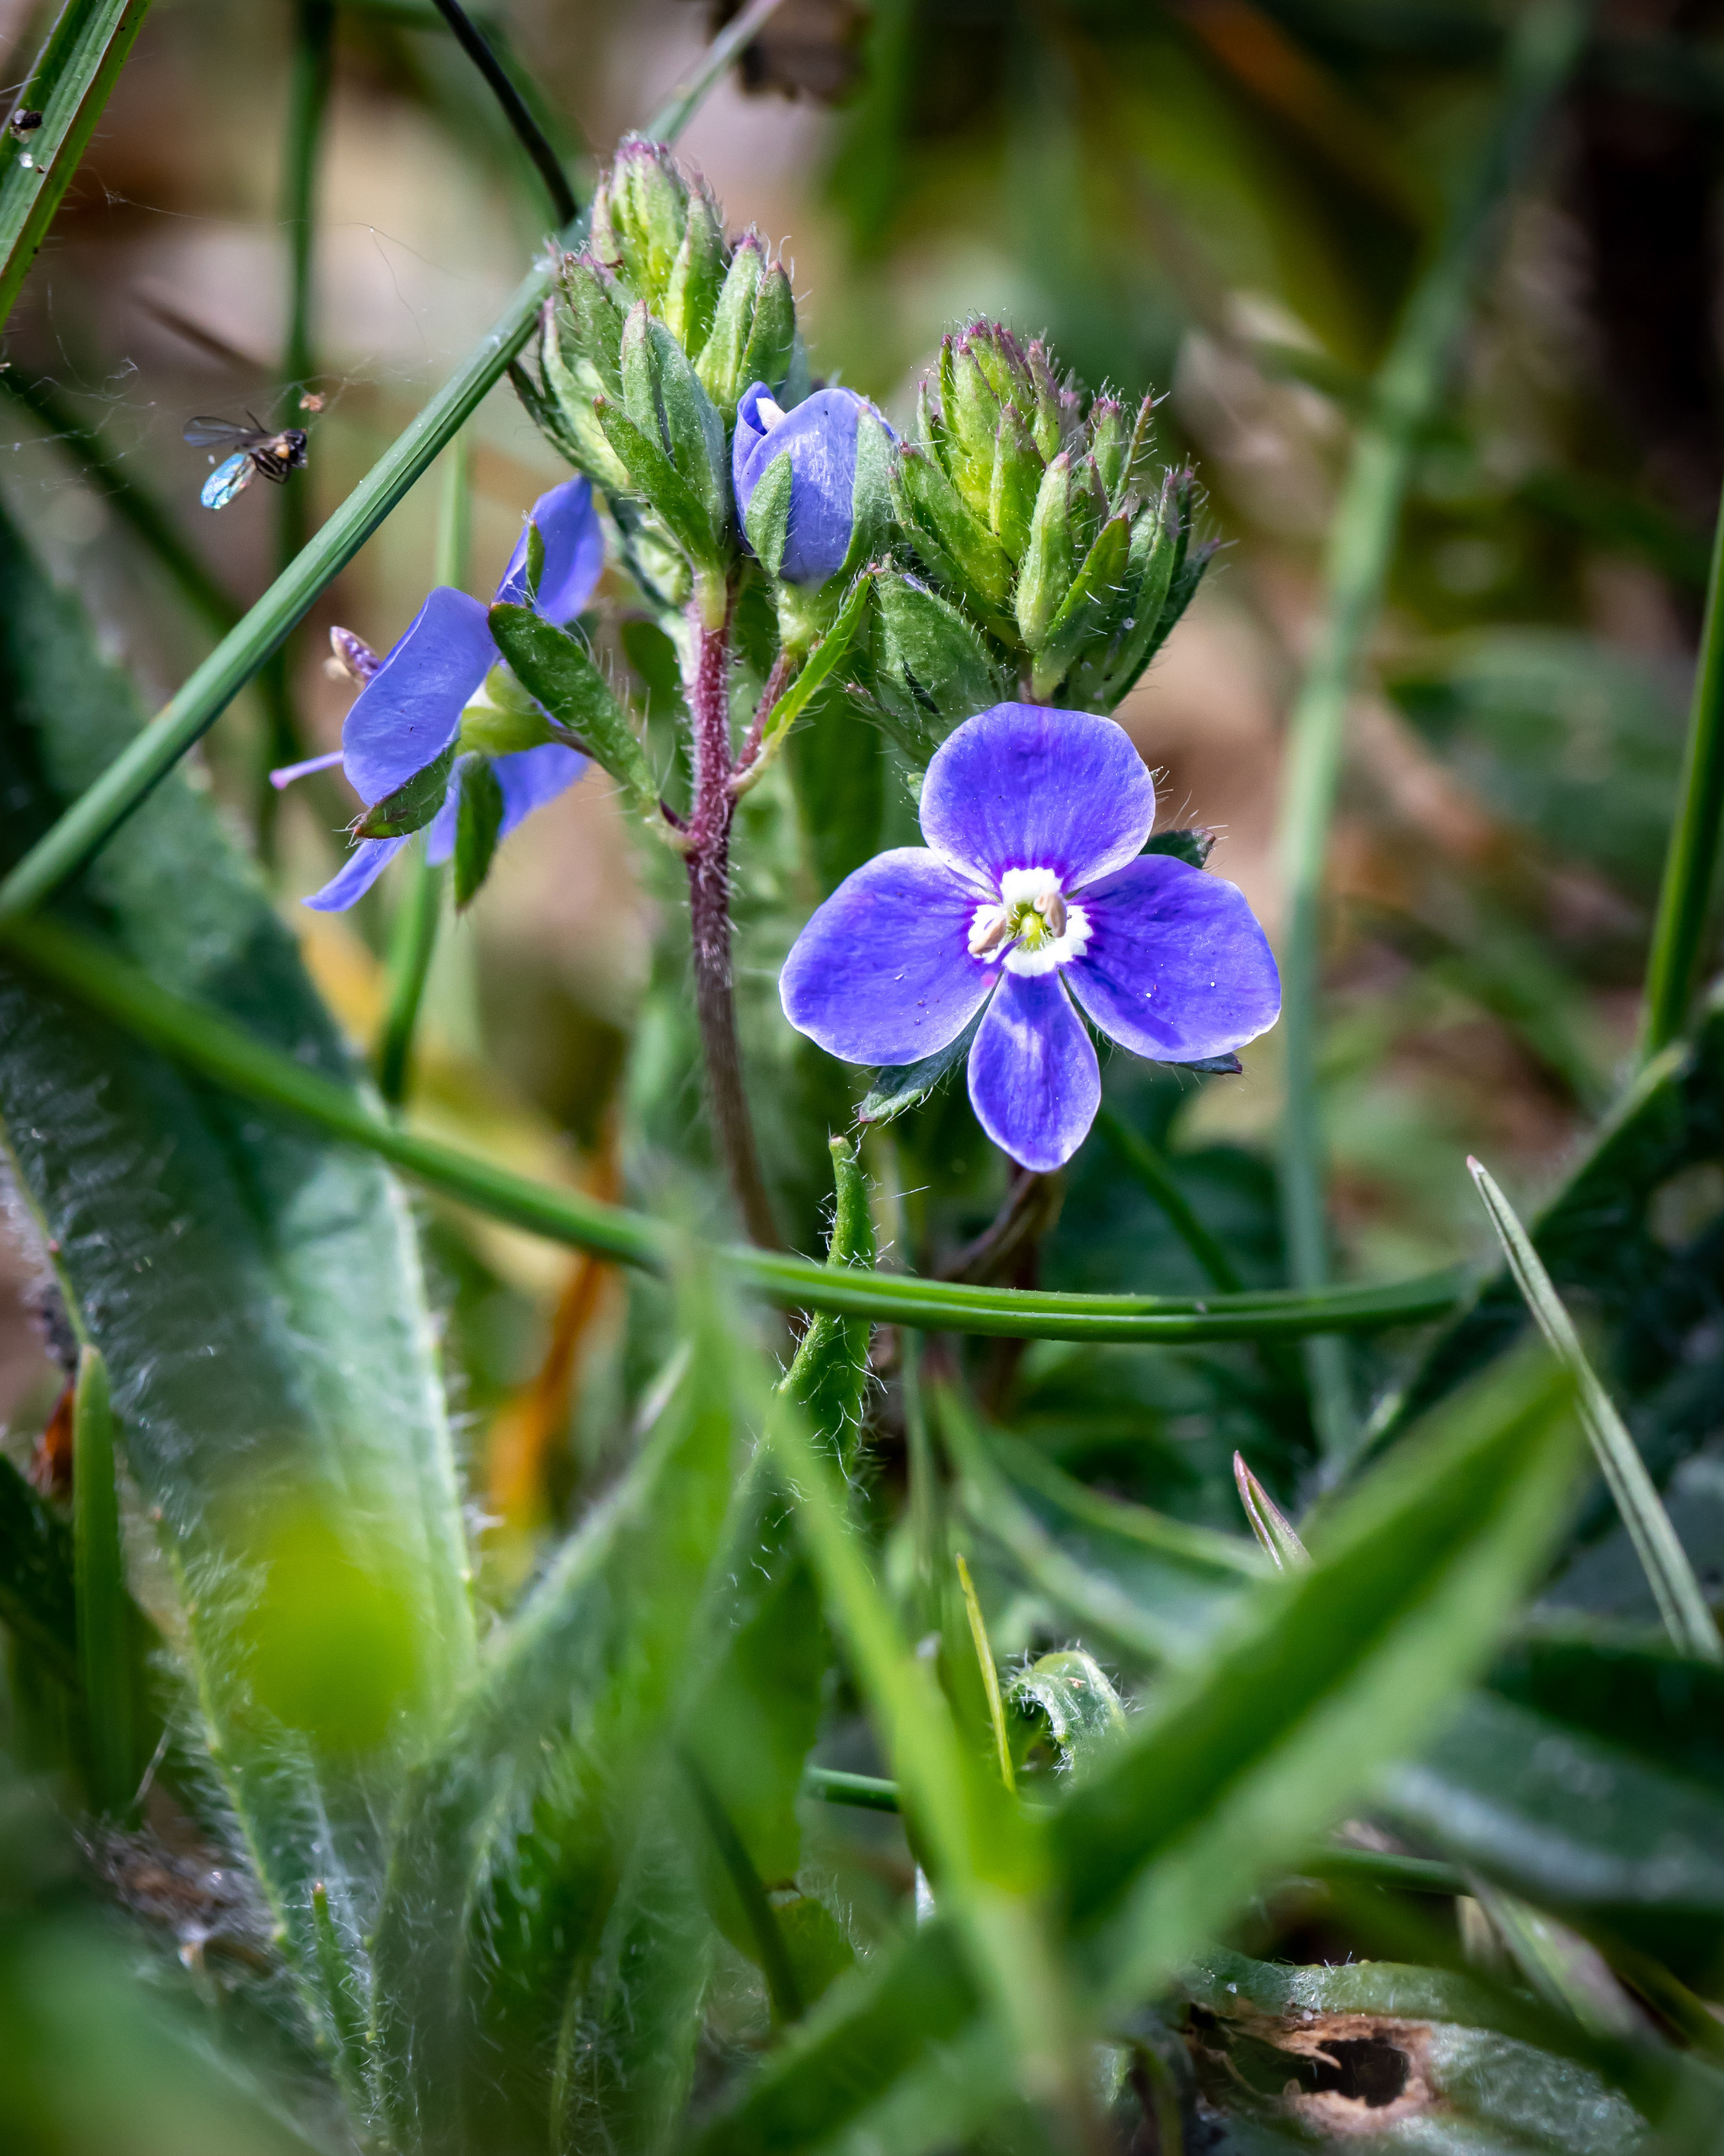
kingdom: Plantae
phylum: Tracheophyta
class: Magnoliopsida
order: Lamiales
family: Plantaginaceae
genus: Veronica
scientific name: Veronica chamaedrys
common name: Tveskægget ærenpris
